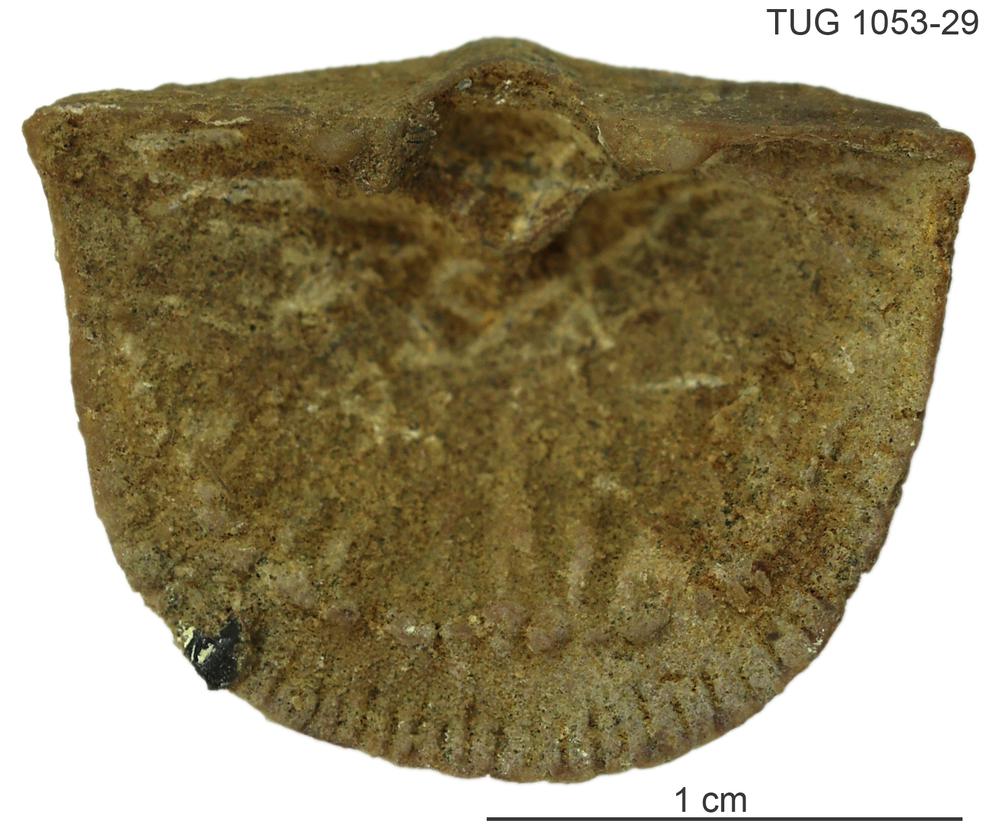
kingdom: Animalia
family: Cornulitidae
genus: Cornulites
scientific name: Cornulites
